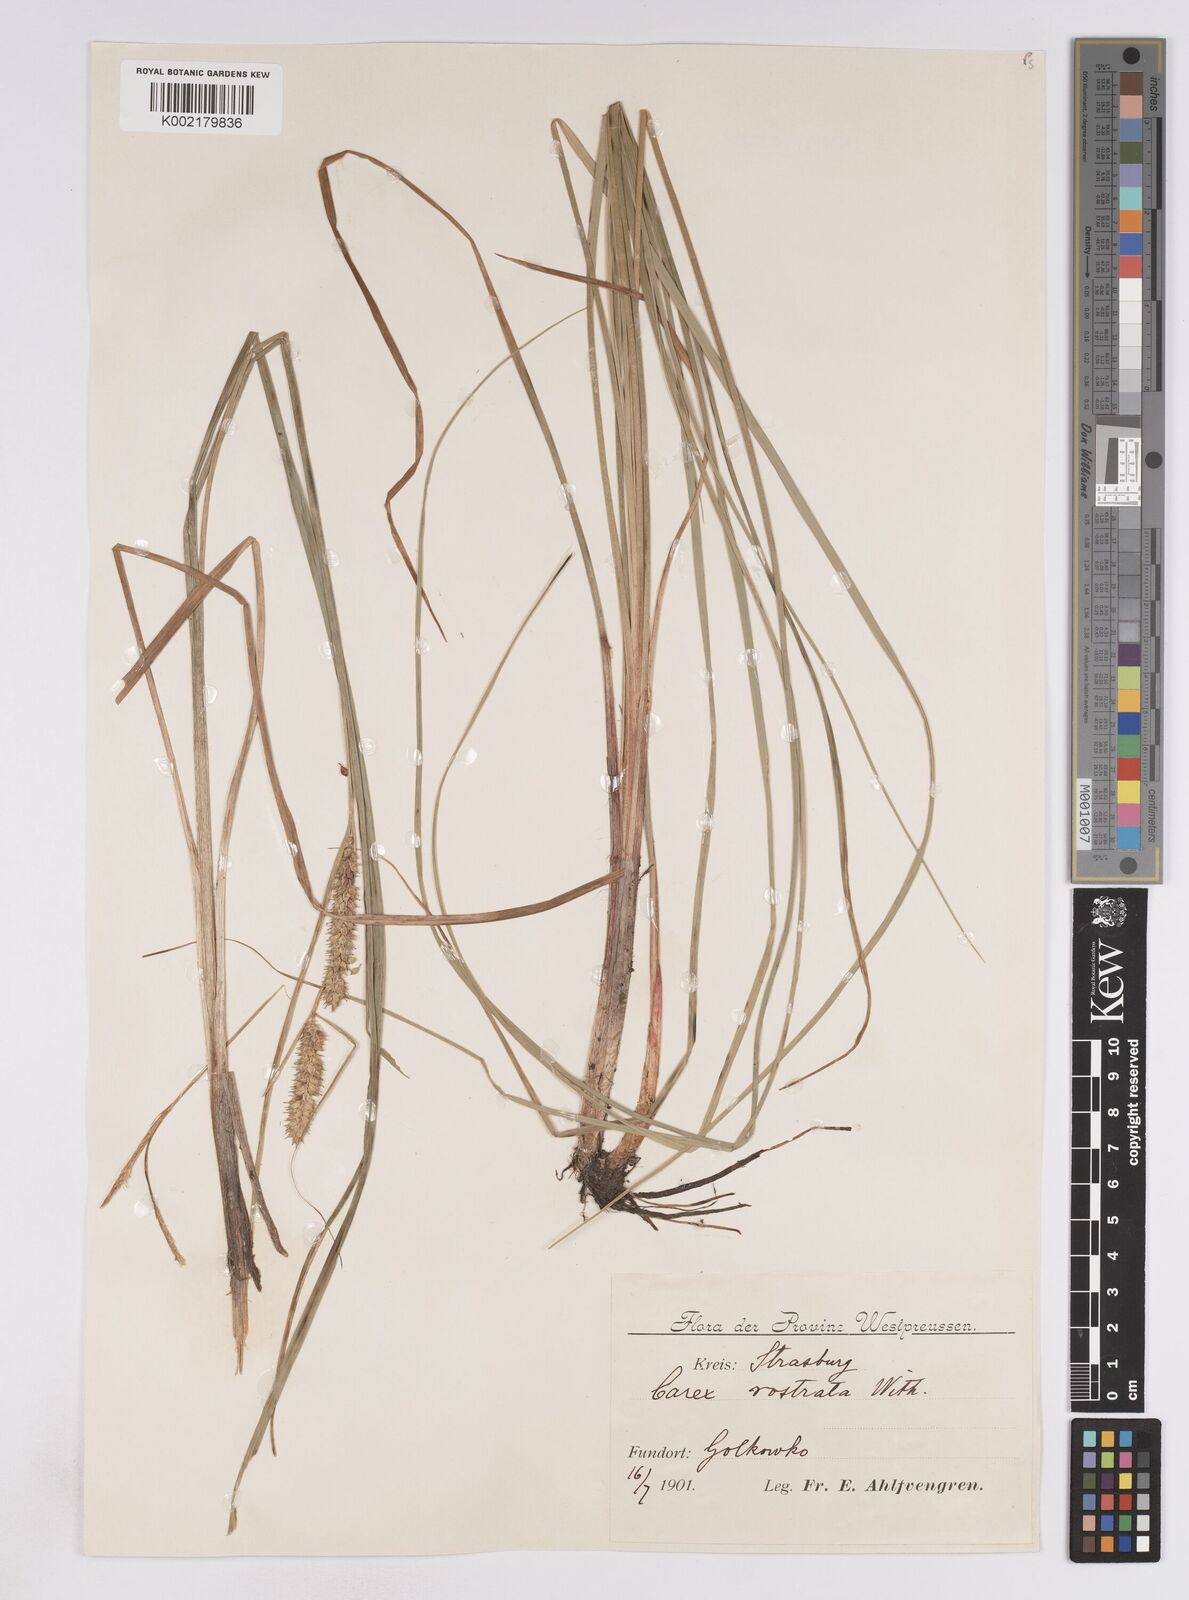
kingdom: Plantae
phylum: Tracheophyta
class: Liliopsida
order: Poales
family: Cyperaceae
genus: Carex
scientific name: Carex rostrata
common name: Bottle sedge
